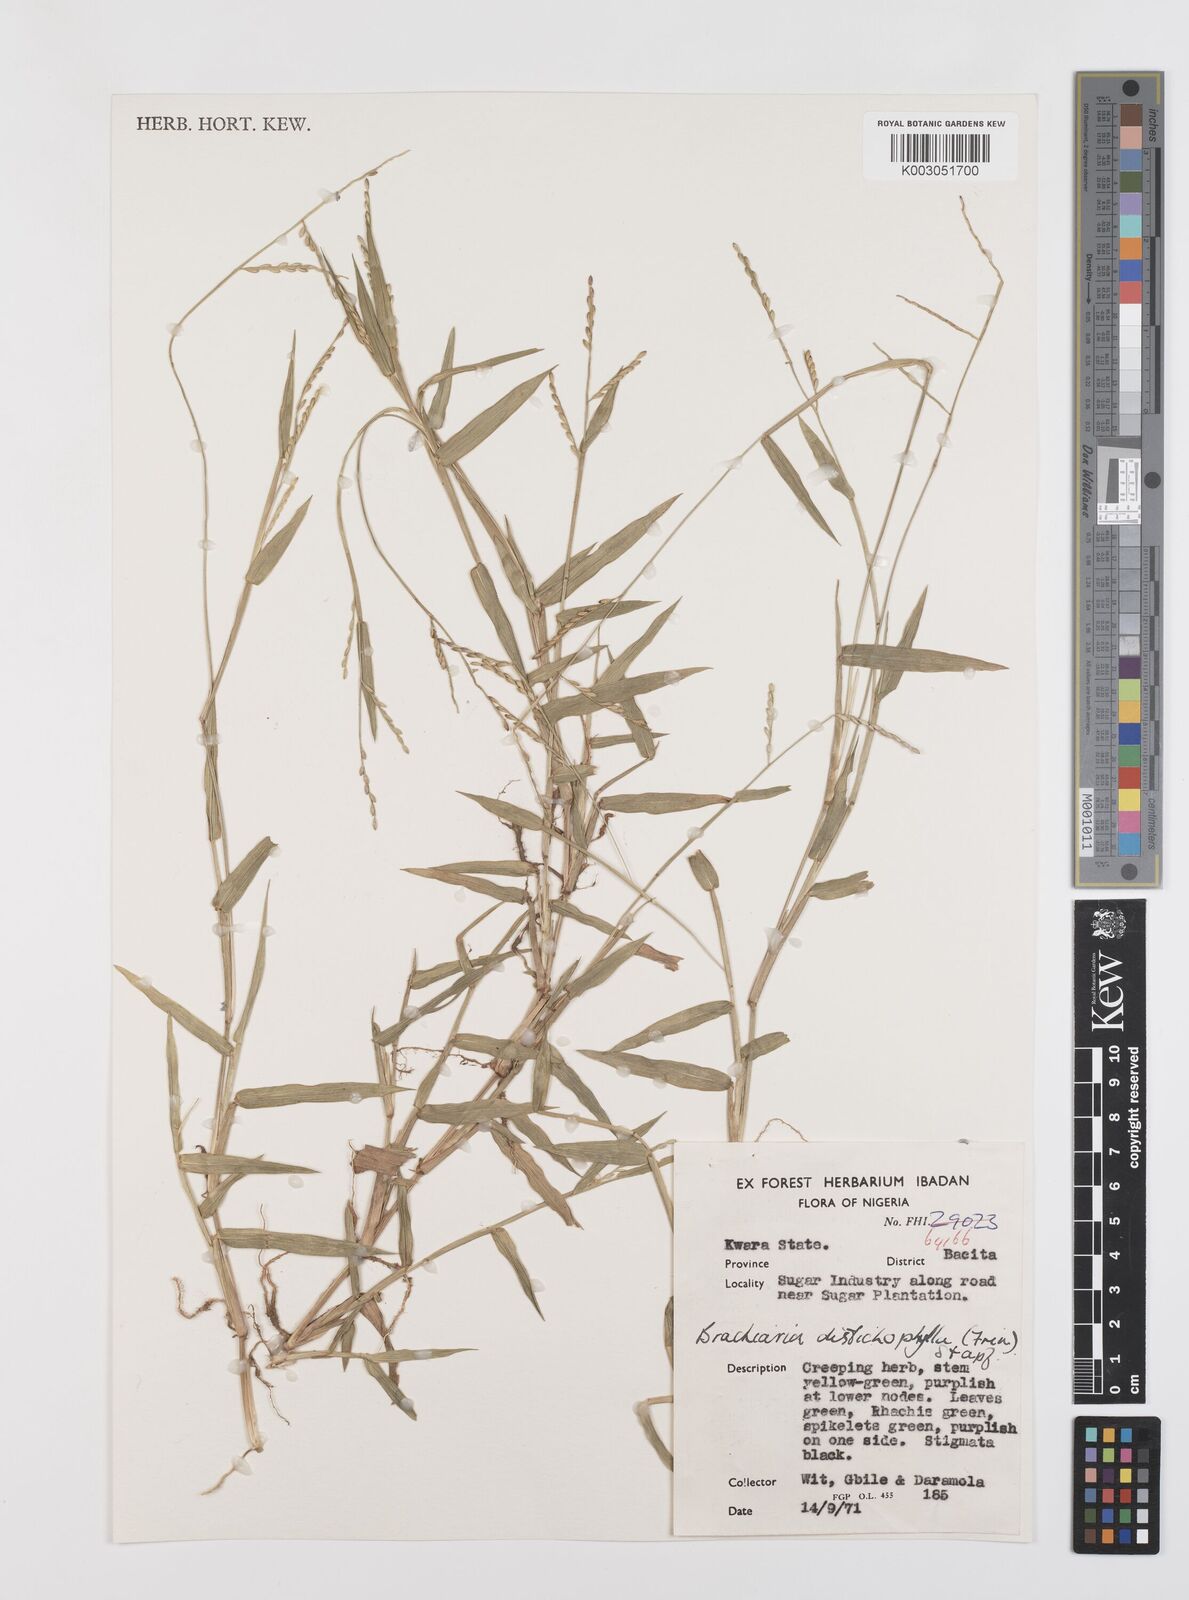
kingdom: Plantae
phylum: Tracheophyta
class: Liliopsida
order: Poales
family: Poaceae
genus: Urochloa
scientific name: Urochloa subquadripara
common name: Armgrass millet
